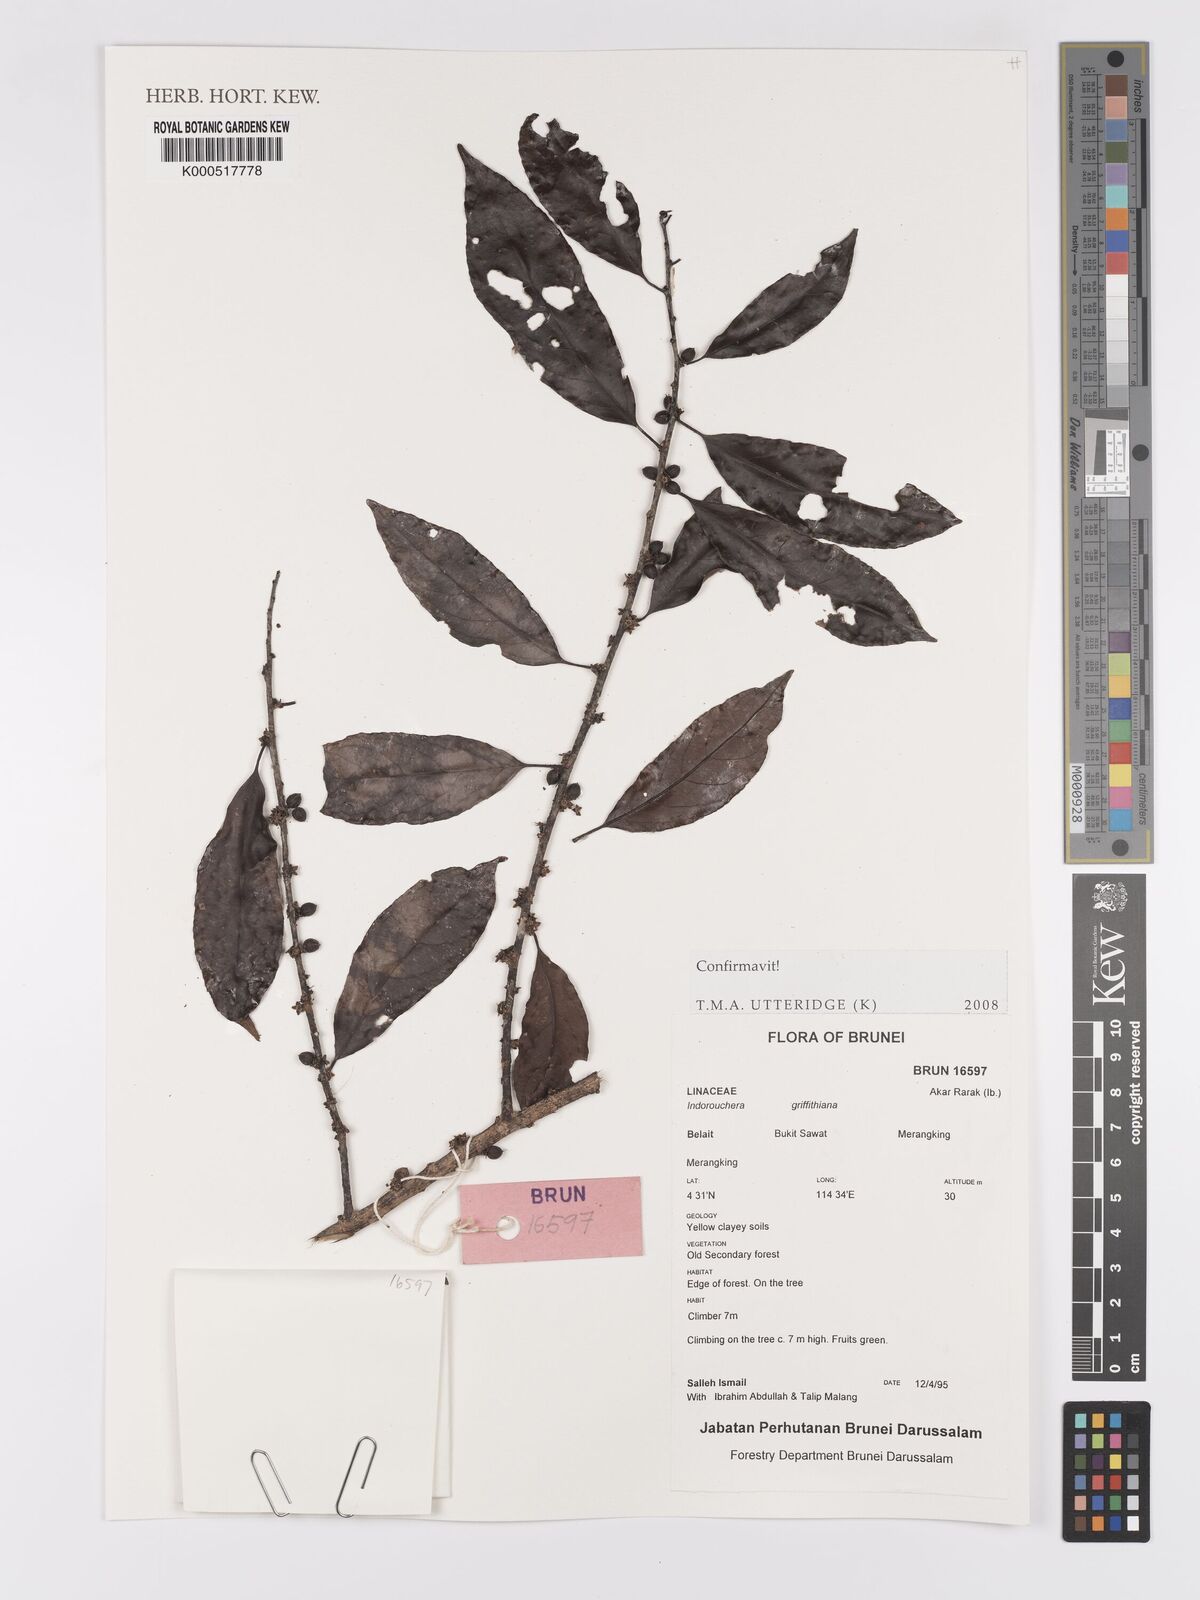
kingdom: Plantae
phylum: Tracheophyta
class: Magnoliopsida
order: Malpighiales
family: Linaceae
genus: Indorouchera
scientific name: Indorouchera griffithiana
